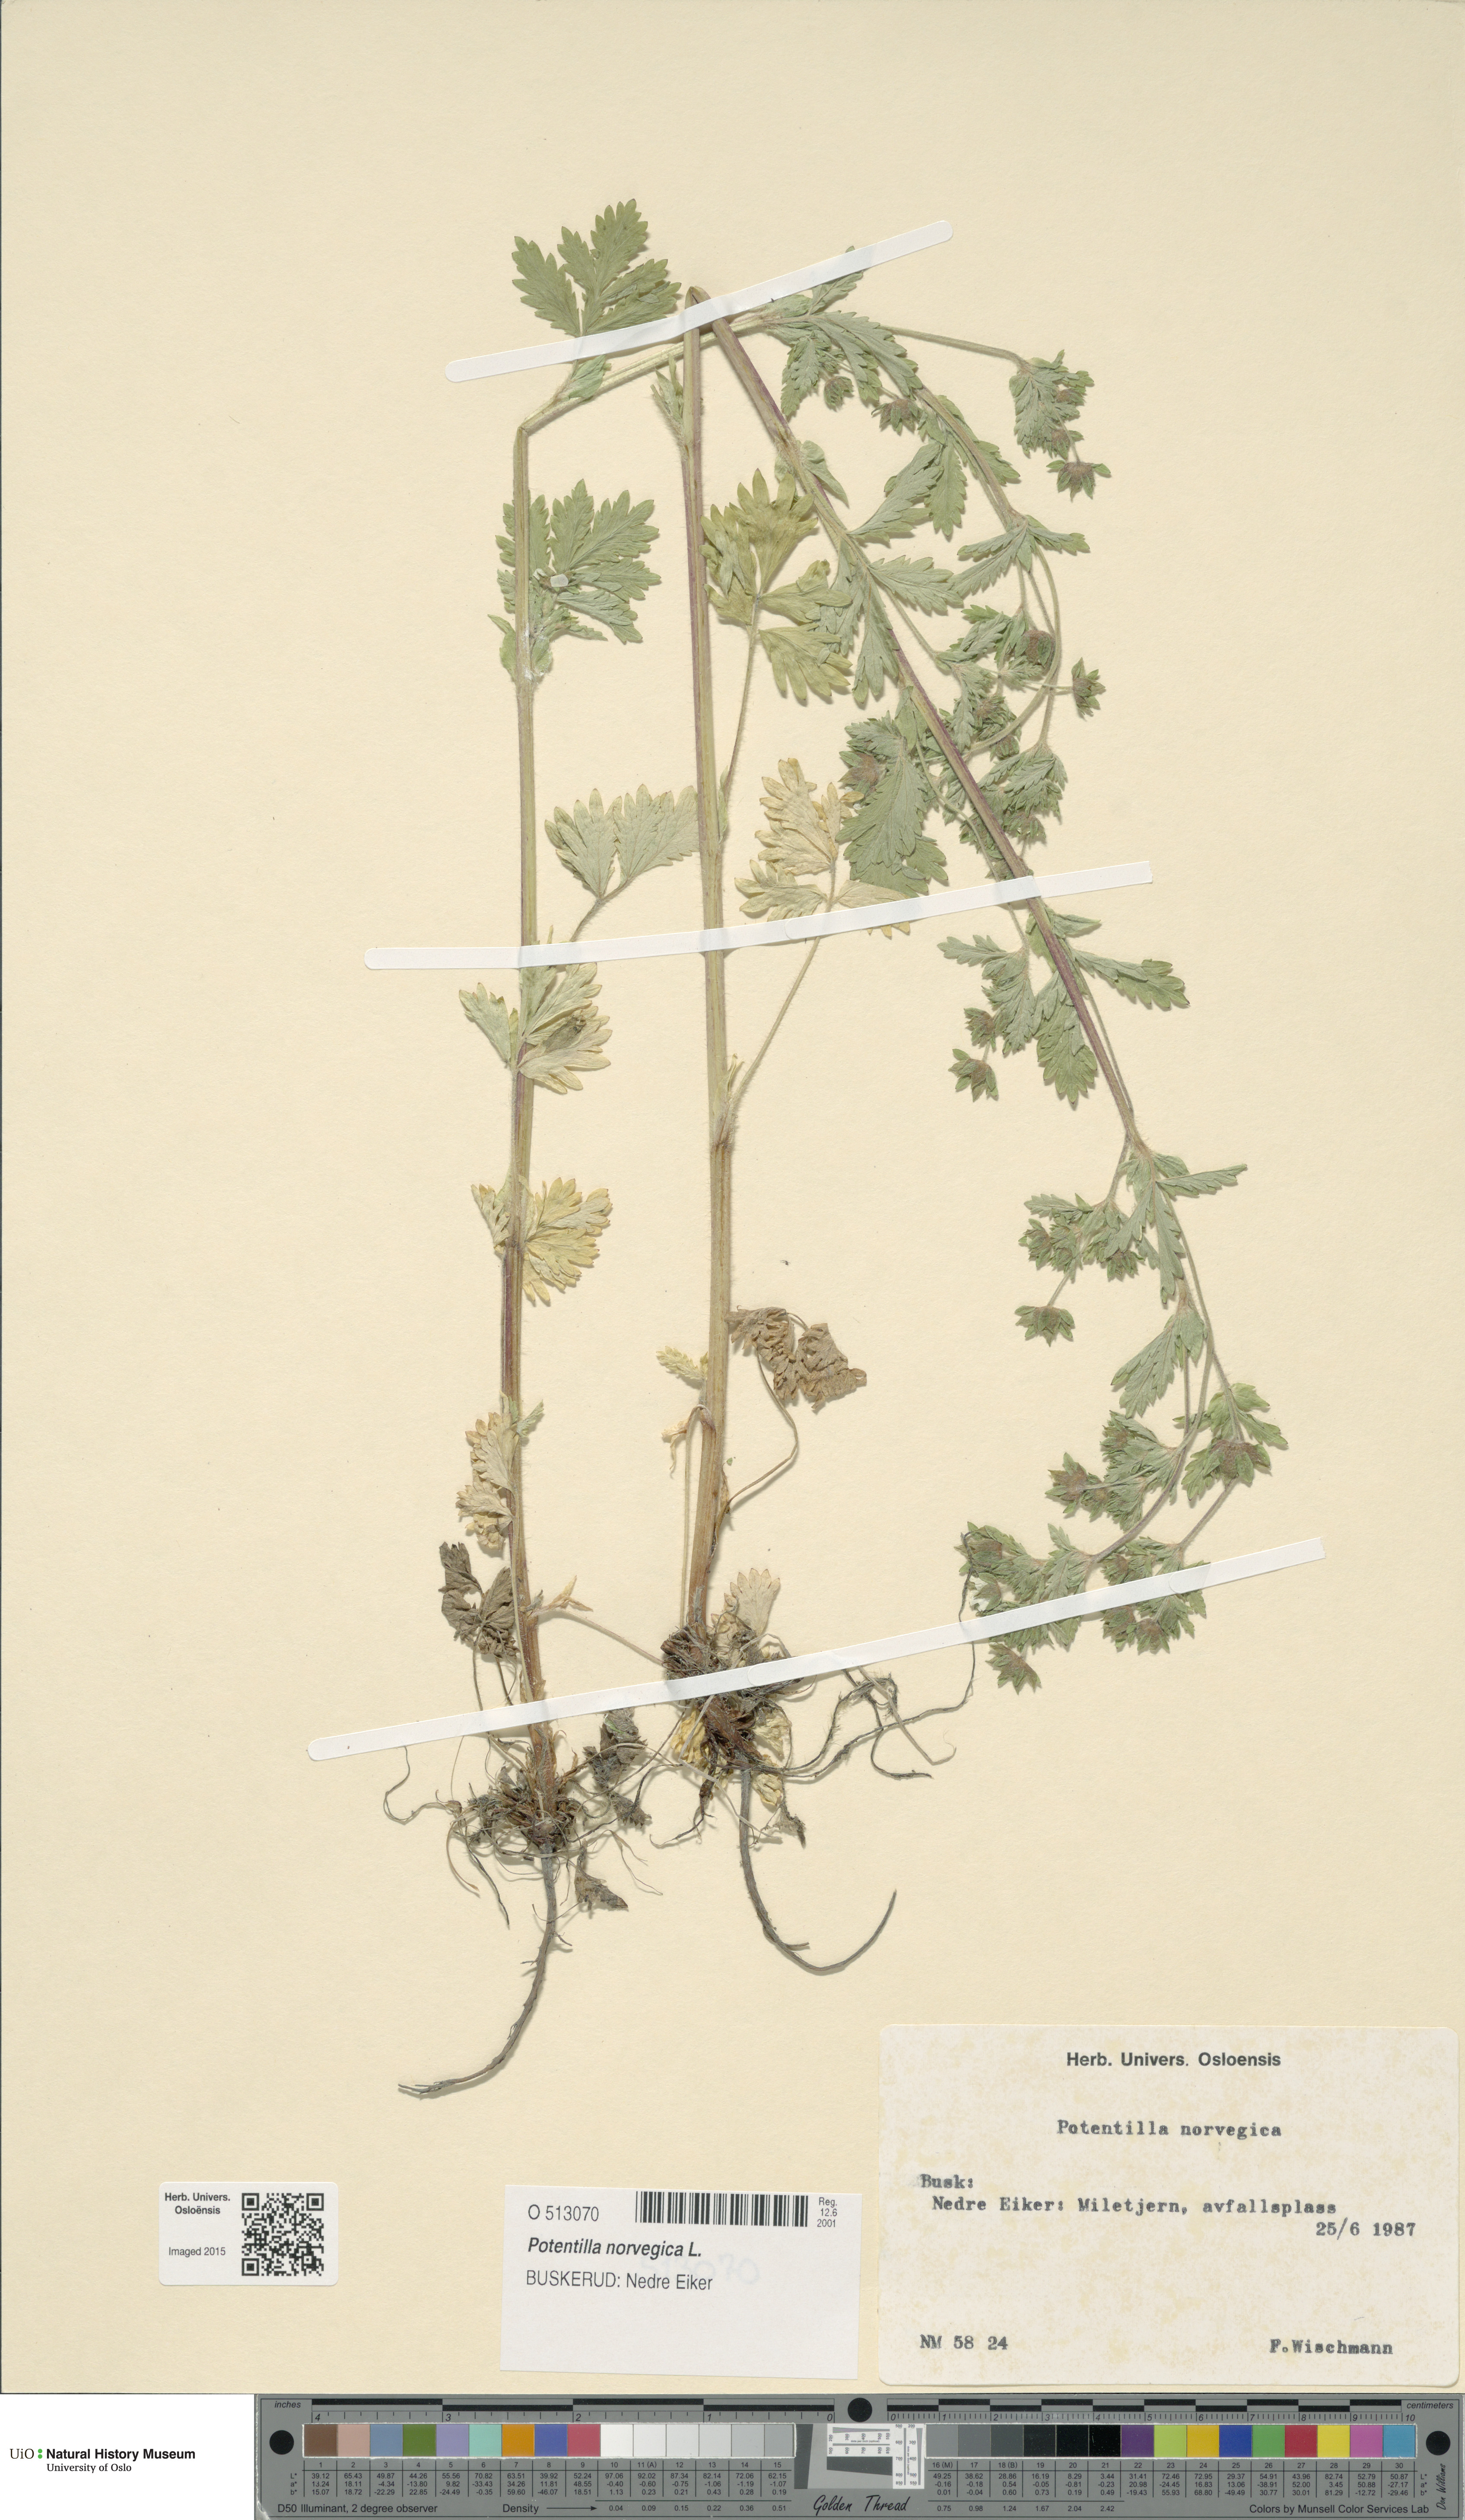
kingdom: Plantae
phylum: Tracheophyta
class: Magnoliopsida
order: Rosales
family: Rosaceae
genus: Potentilla
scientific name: Potentilla norvegica
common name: Ternate-leaved cinquefoil
